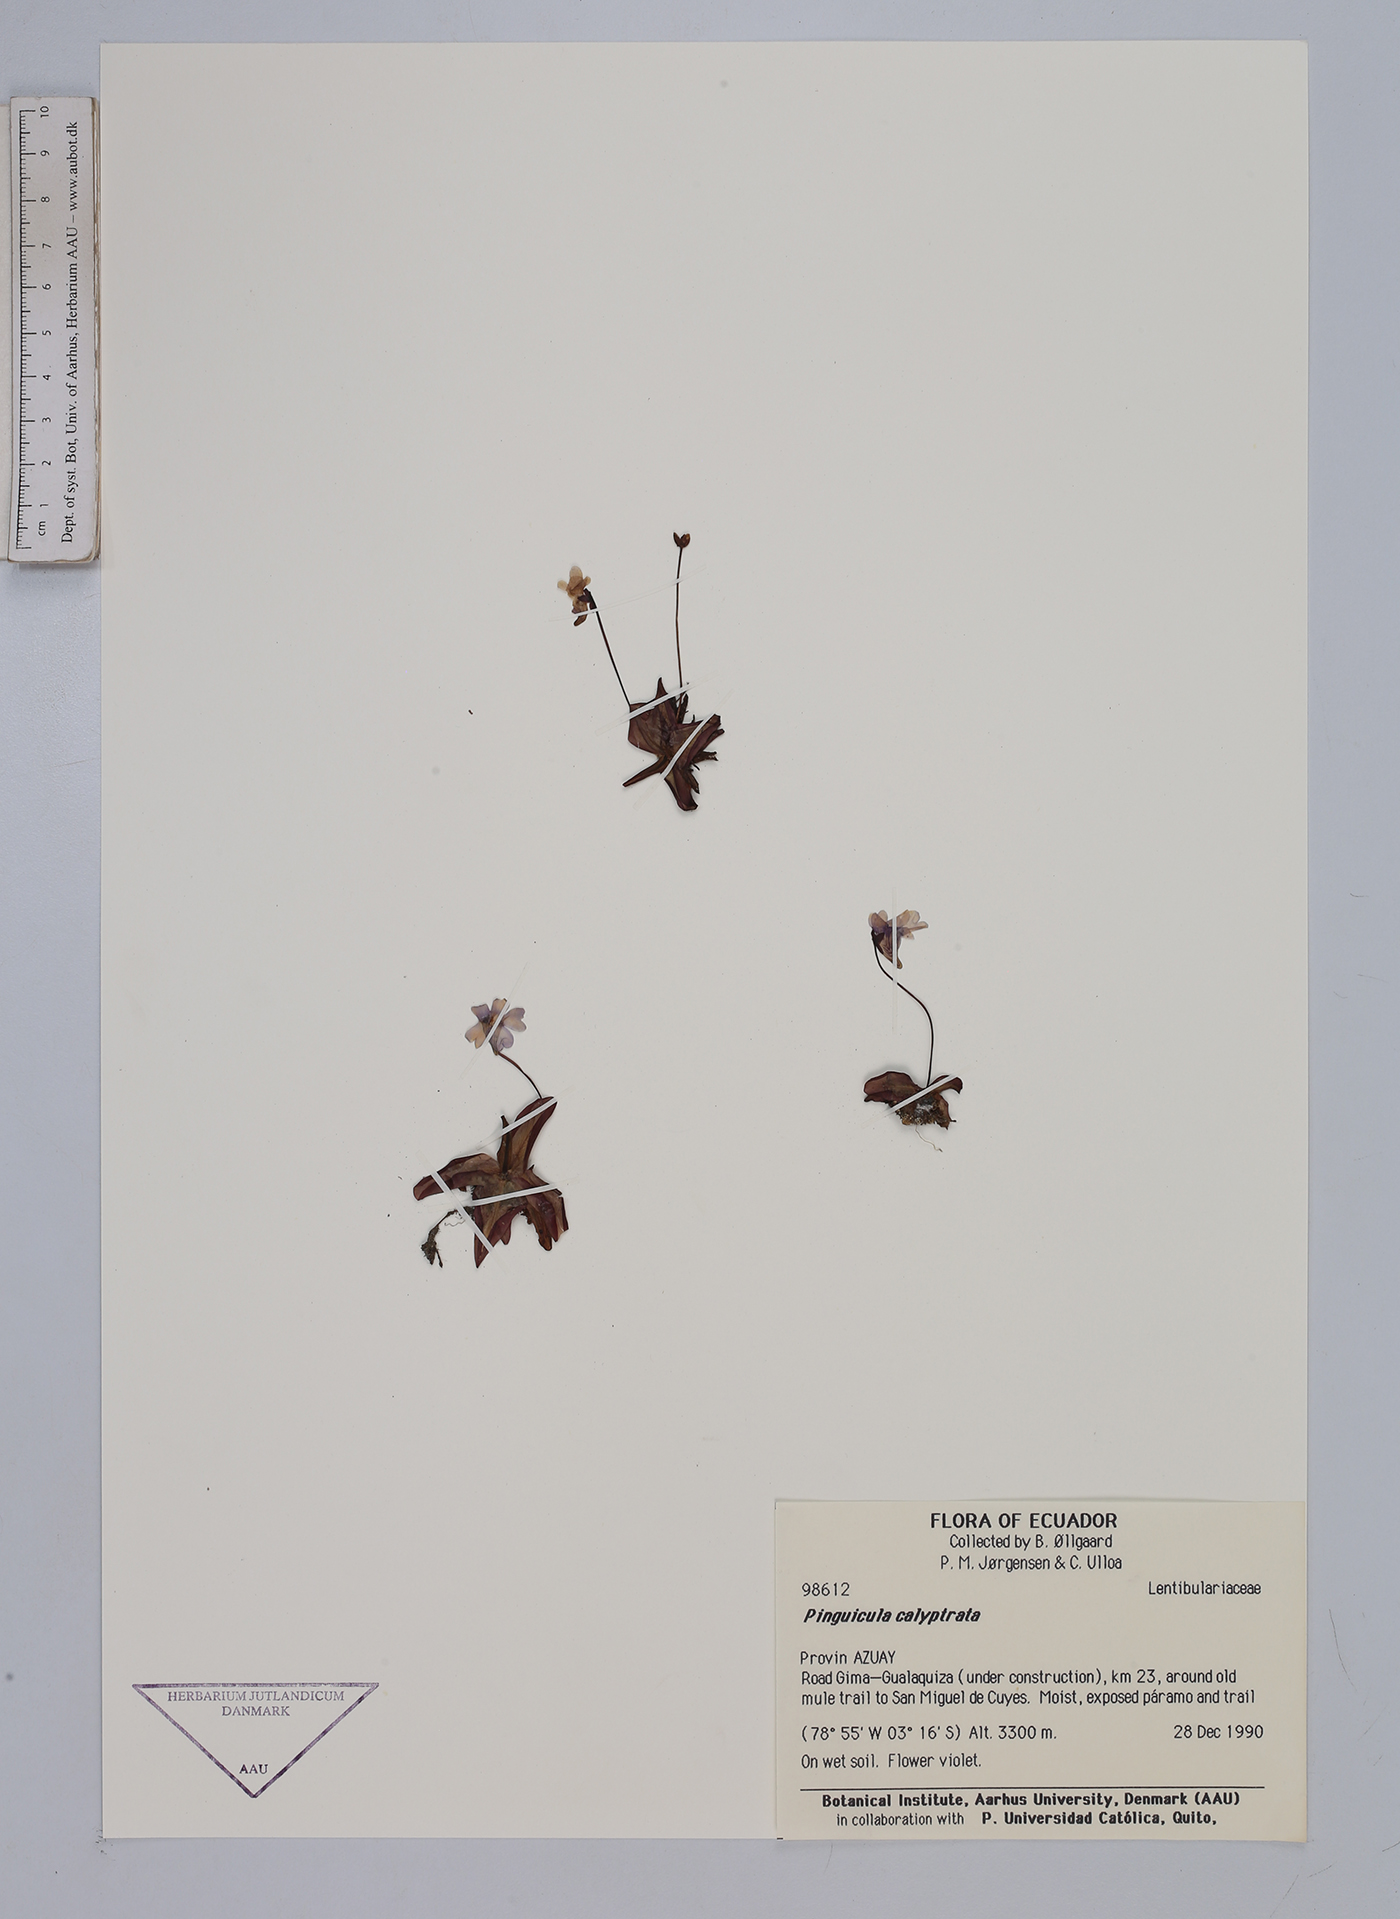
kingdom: Plantae
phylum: Tracheophyta
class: Magnoliopsida
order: Lamiales
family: Lentibulariaceae
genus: Pinguicula
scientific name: Pinguicula calyptrata
